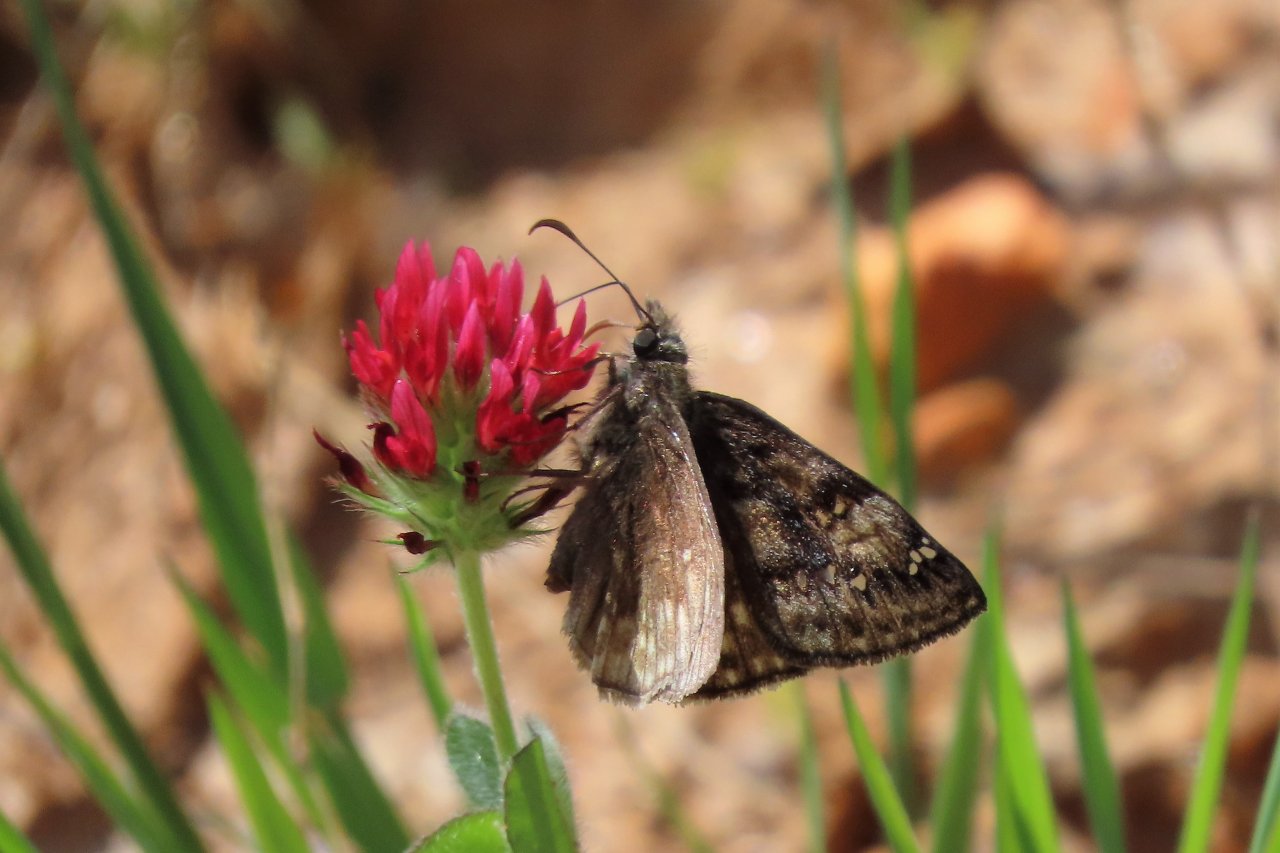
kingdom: Animalia
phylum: Arthropoda
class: Insecta
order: Lepidoptera
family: Hesperiidae
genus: Gesta
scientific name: Gesta
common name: Juvenal's Duskywing
